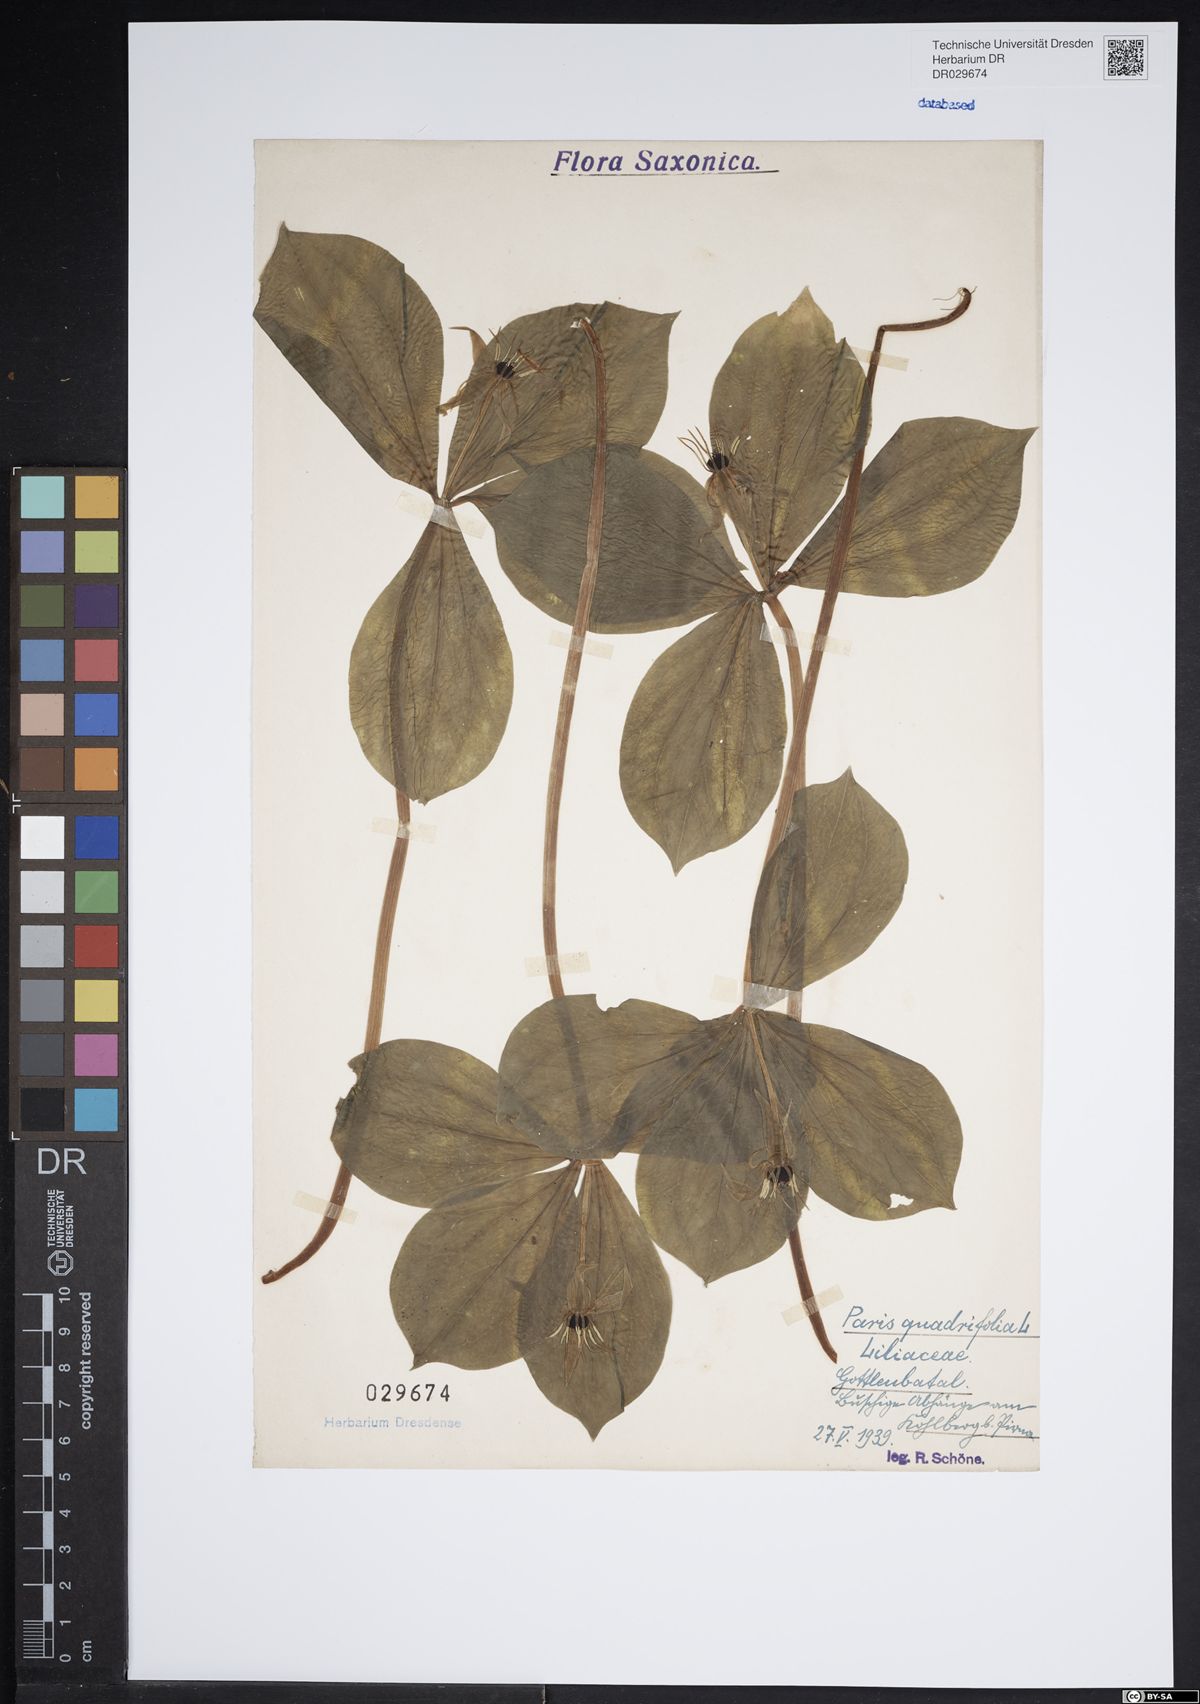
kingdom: Plantae
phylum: Tracheophyta
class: Liliopsida
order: Liliales
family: Melanthiaceae
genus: Paris
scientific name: Paris quadrifolia
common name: Herb-paris
